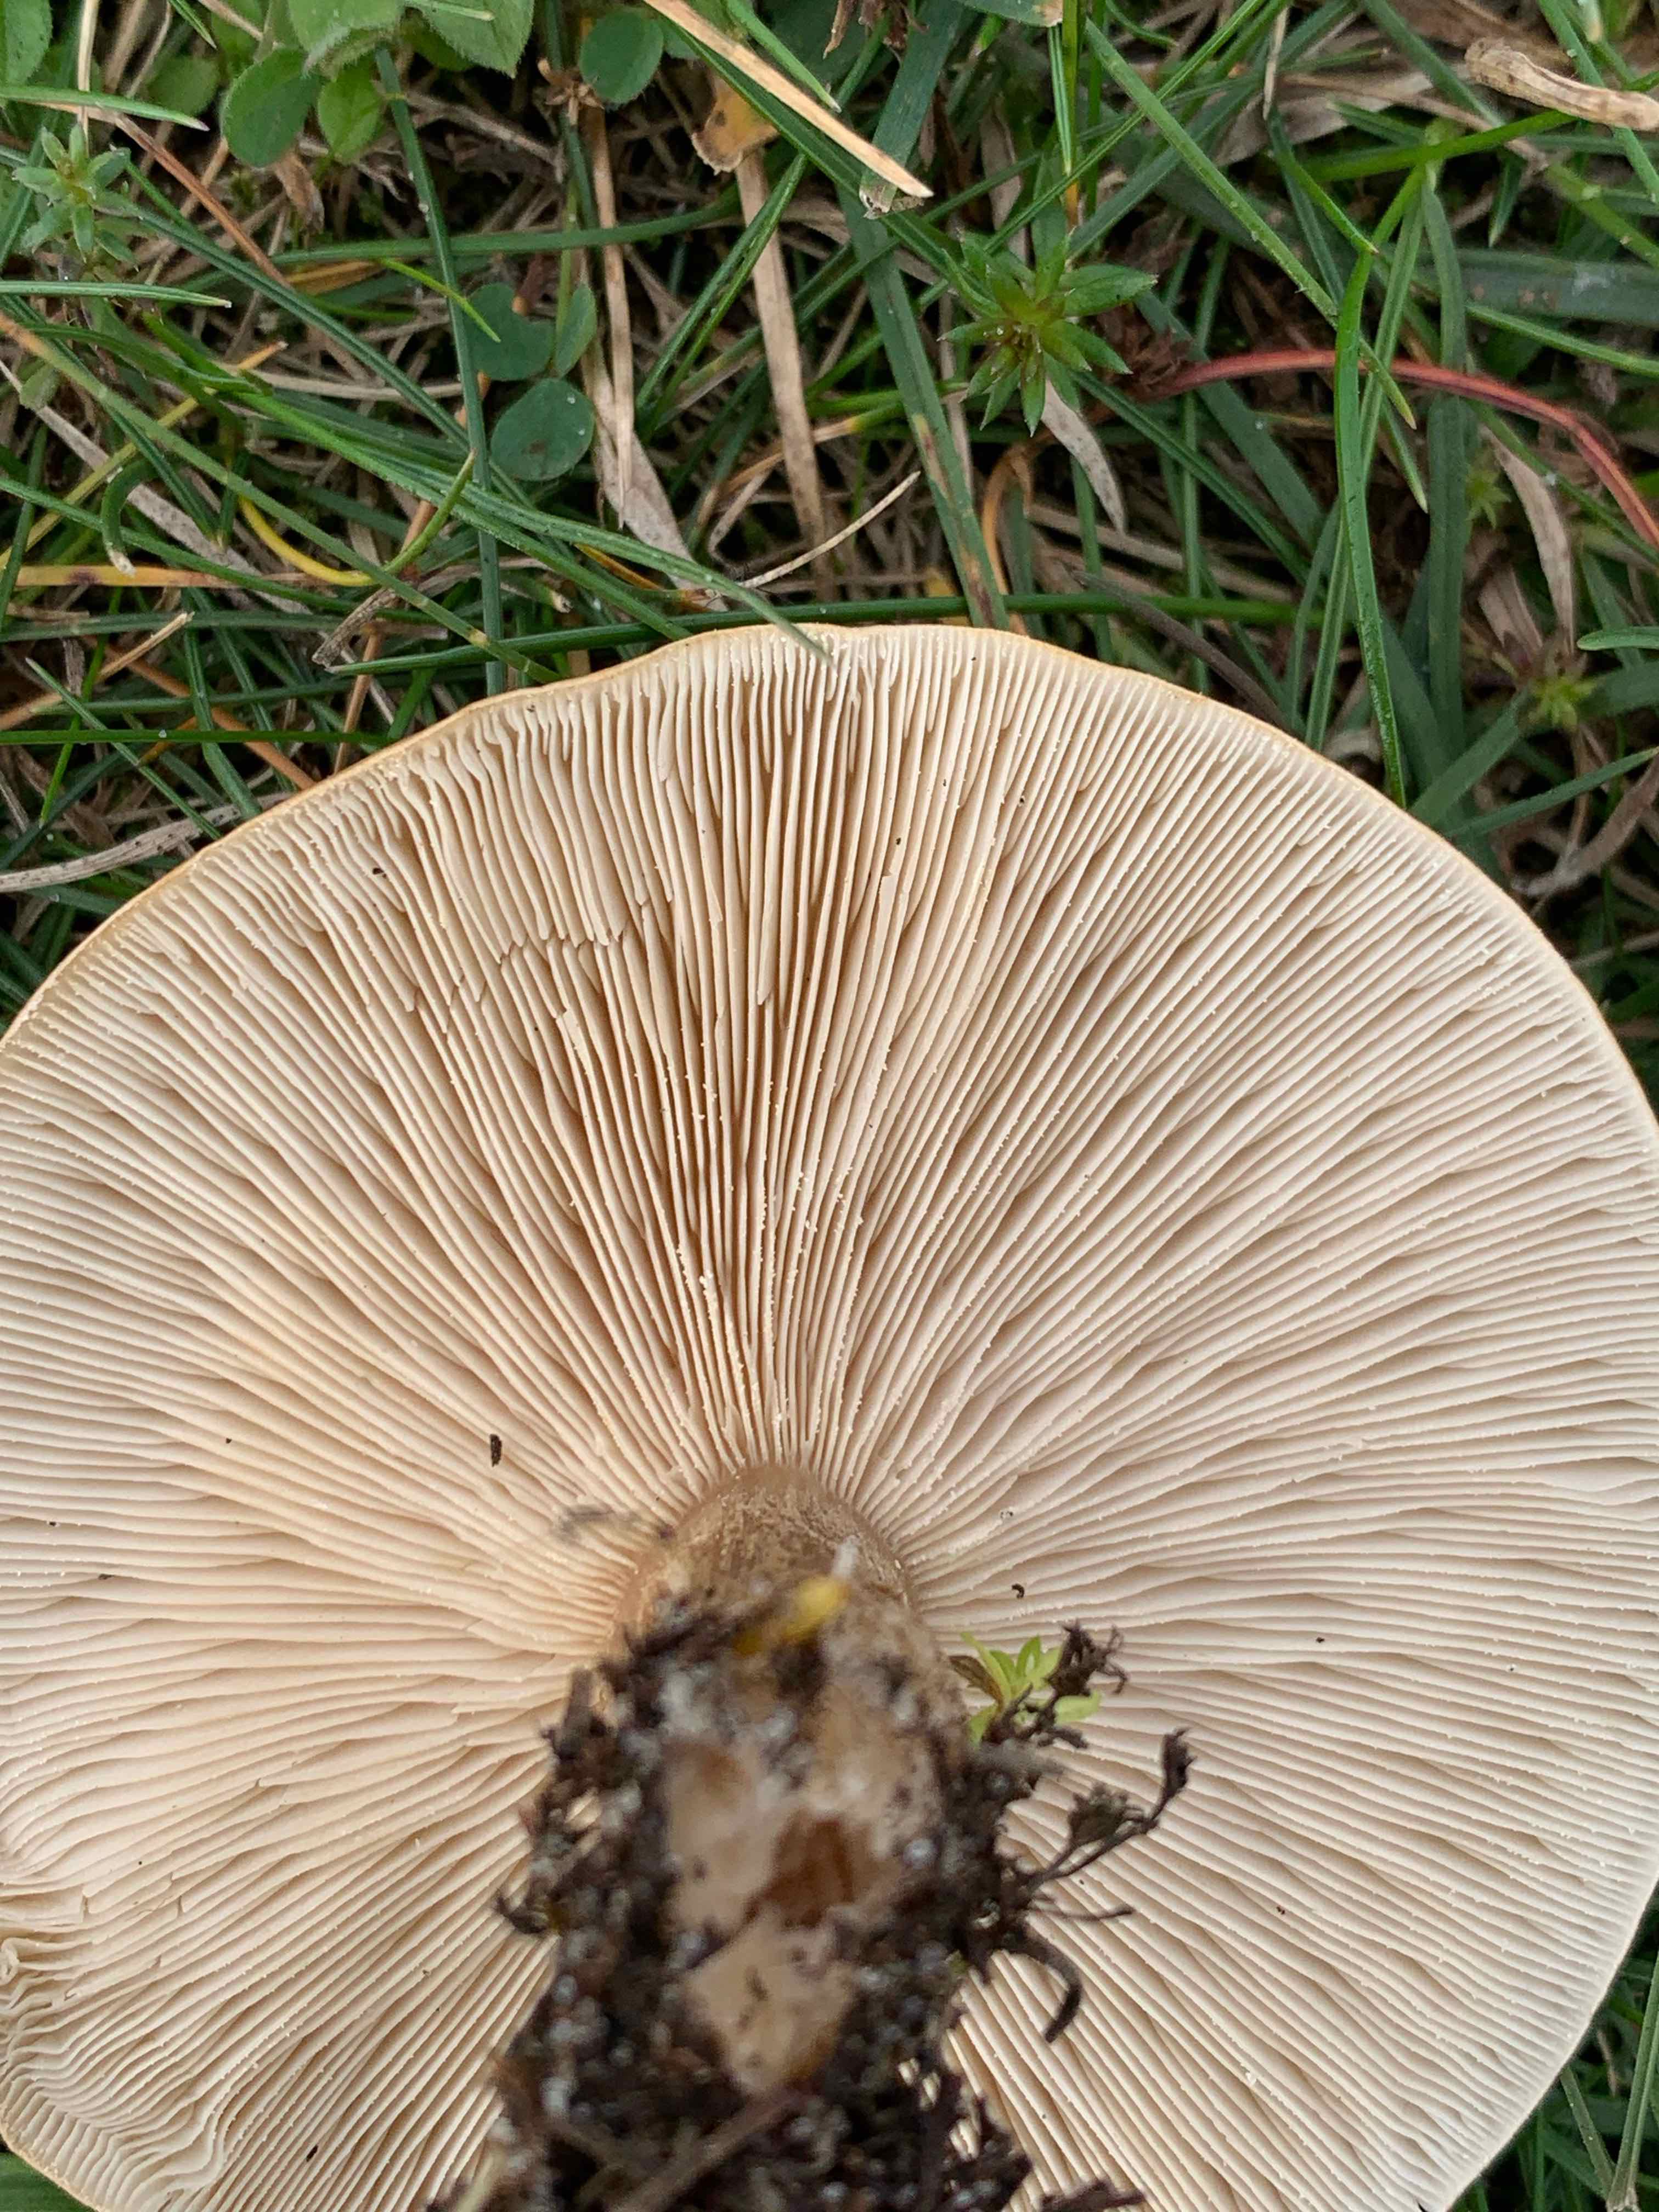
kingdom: Fungi
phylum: Basidiomycota
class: Agaricomycetes
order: Agaricales
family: Tricholomataceae
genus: Melanoleuca
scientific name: Melanoleuca grammopodia
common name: stribestokket munkehat
